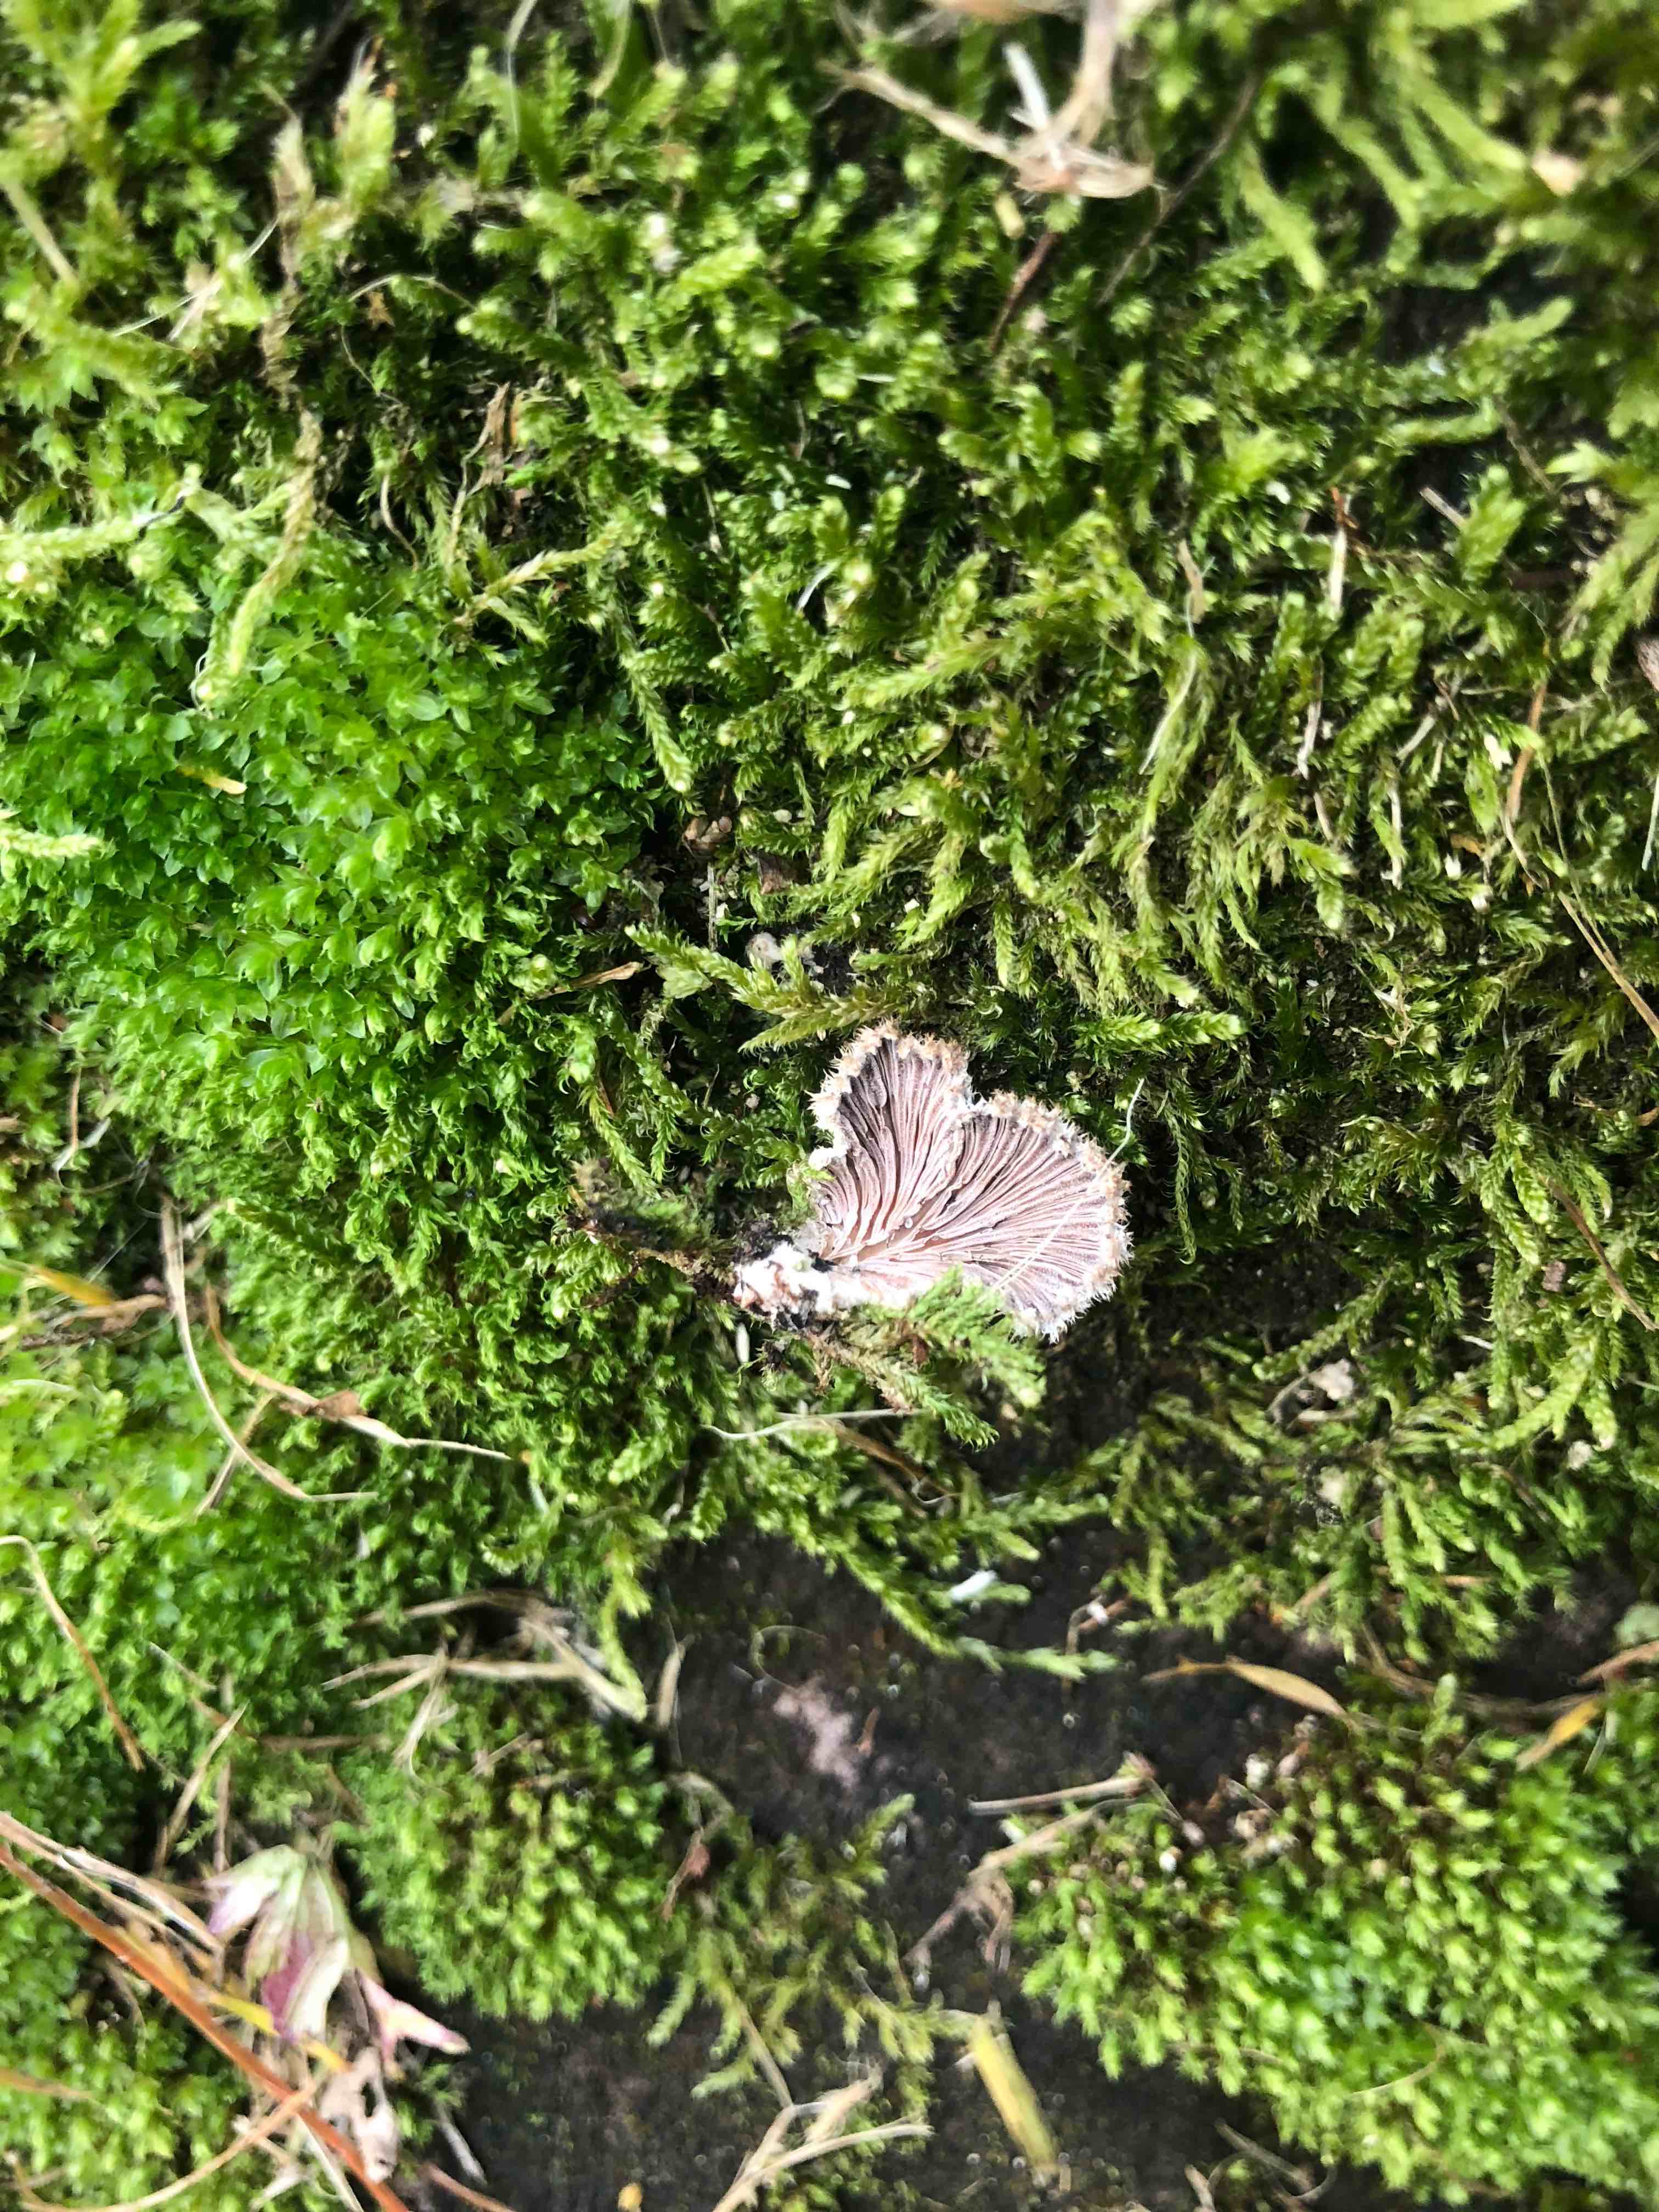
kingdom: Fungi
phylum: Basidiomycota
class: Agaricomycetes
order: Agaricales
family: Schizophyllaceae
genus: Schizophyllum
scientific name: Schizophyllum commune
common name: kløvblad
